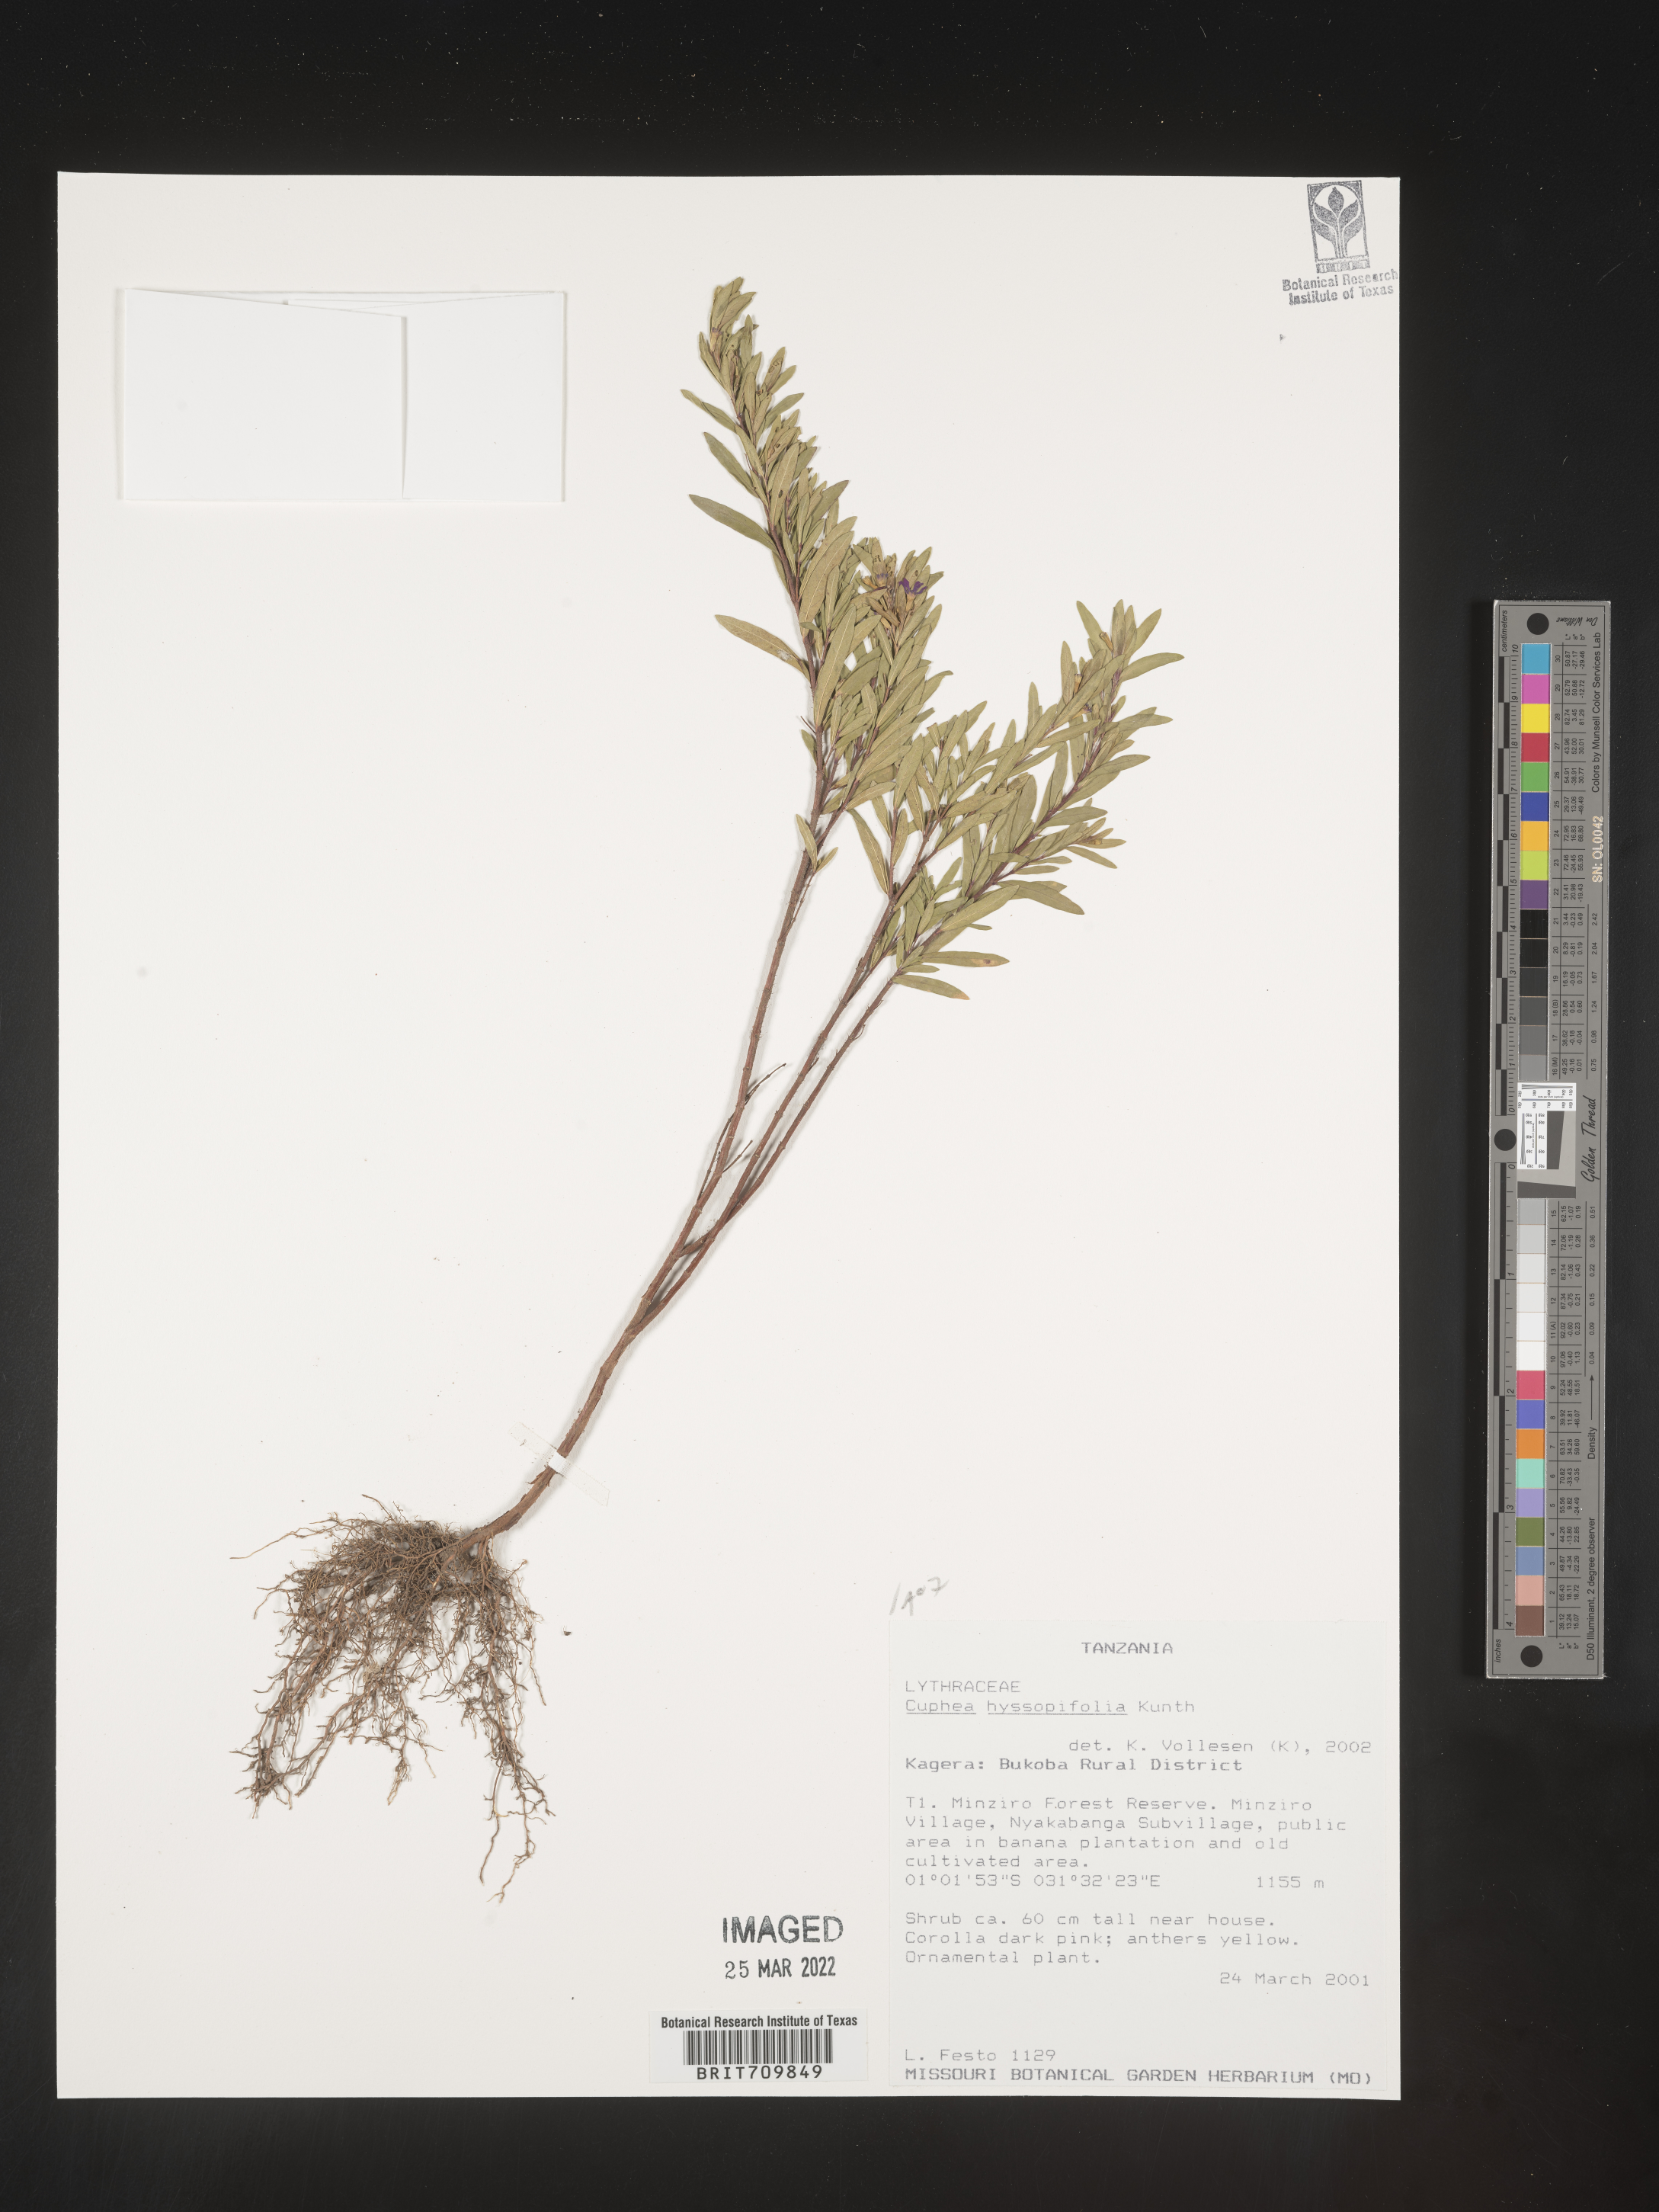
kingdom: Plantae
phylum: Tracheophyta
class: Magnoliopsida
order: Myrtales
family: Lythraceae
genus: Cuphea
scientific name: Cuphea
